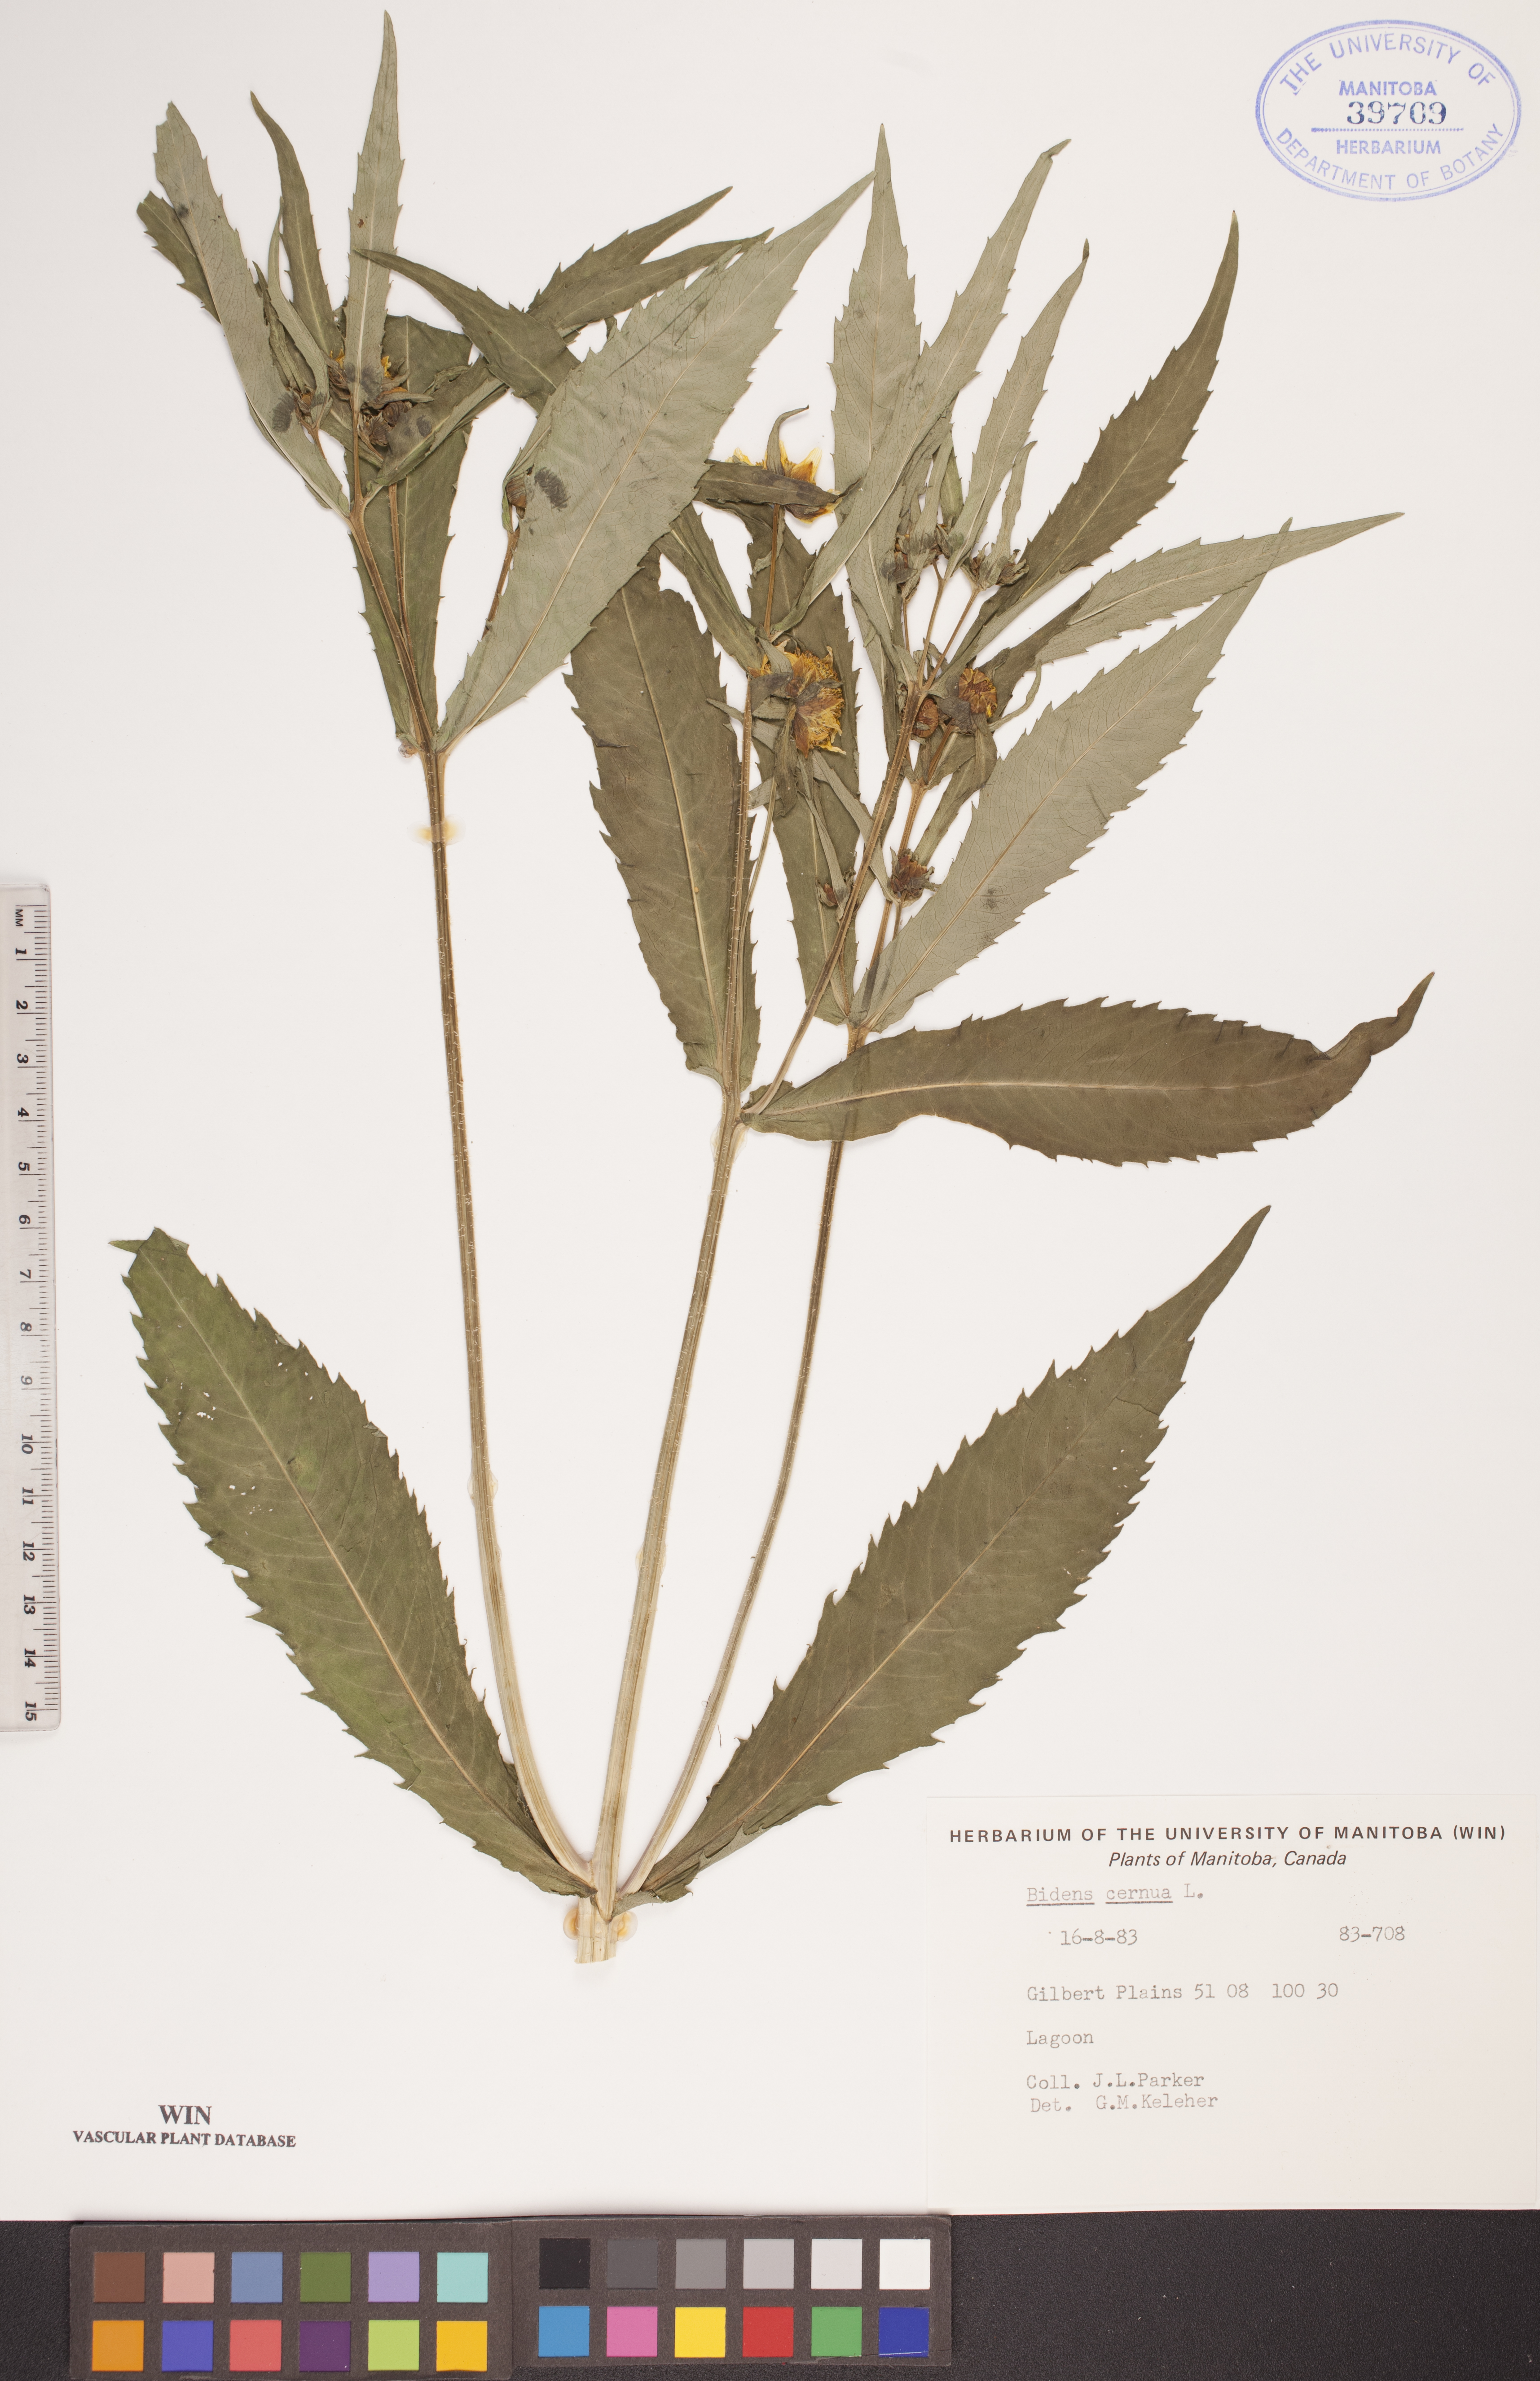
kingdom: Plantae
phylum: Tracheophyta
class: Magnoliopsida
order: Asterales
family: Asteraceae
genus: Bidens
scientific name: Bidens cernua
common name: Nodding bur-marigold
